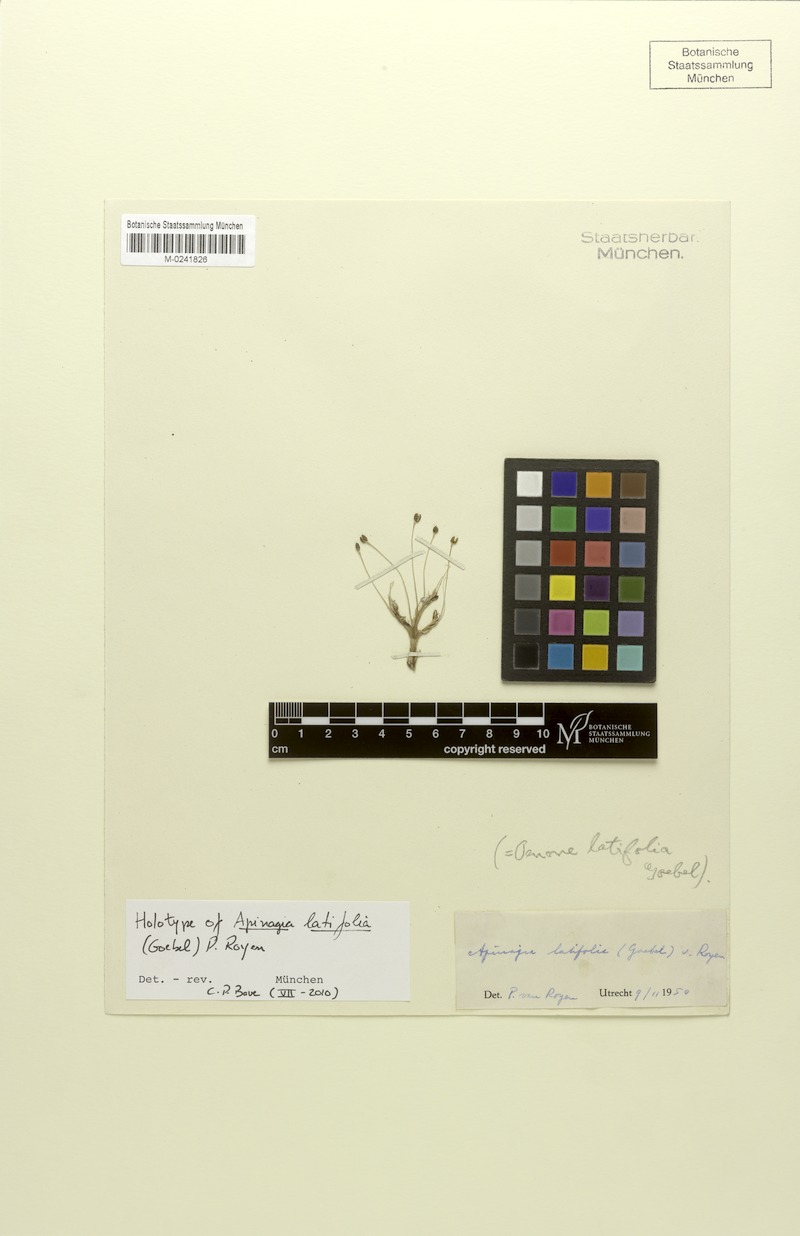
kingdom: Plantae
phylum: Tracheophyta
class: Magnoliopsida
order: Malpighiales
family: Podostemaceae
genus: Apinagia
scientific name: Apinagia kochii
